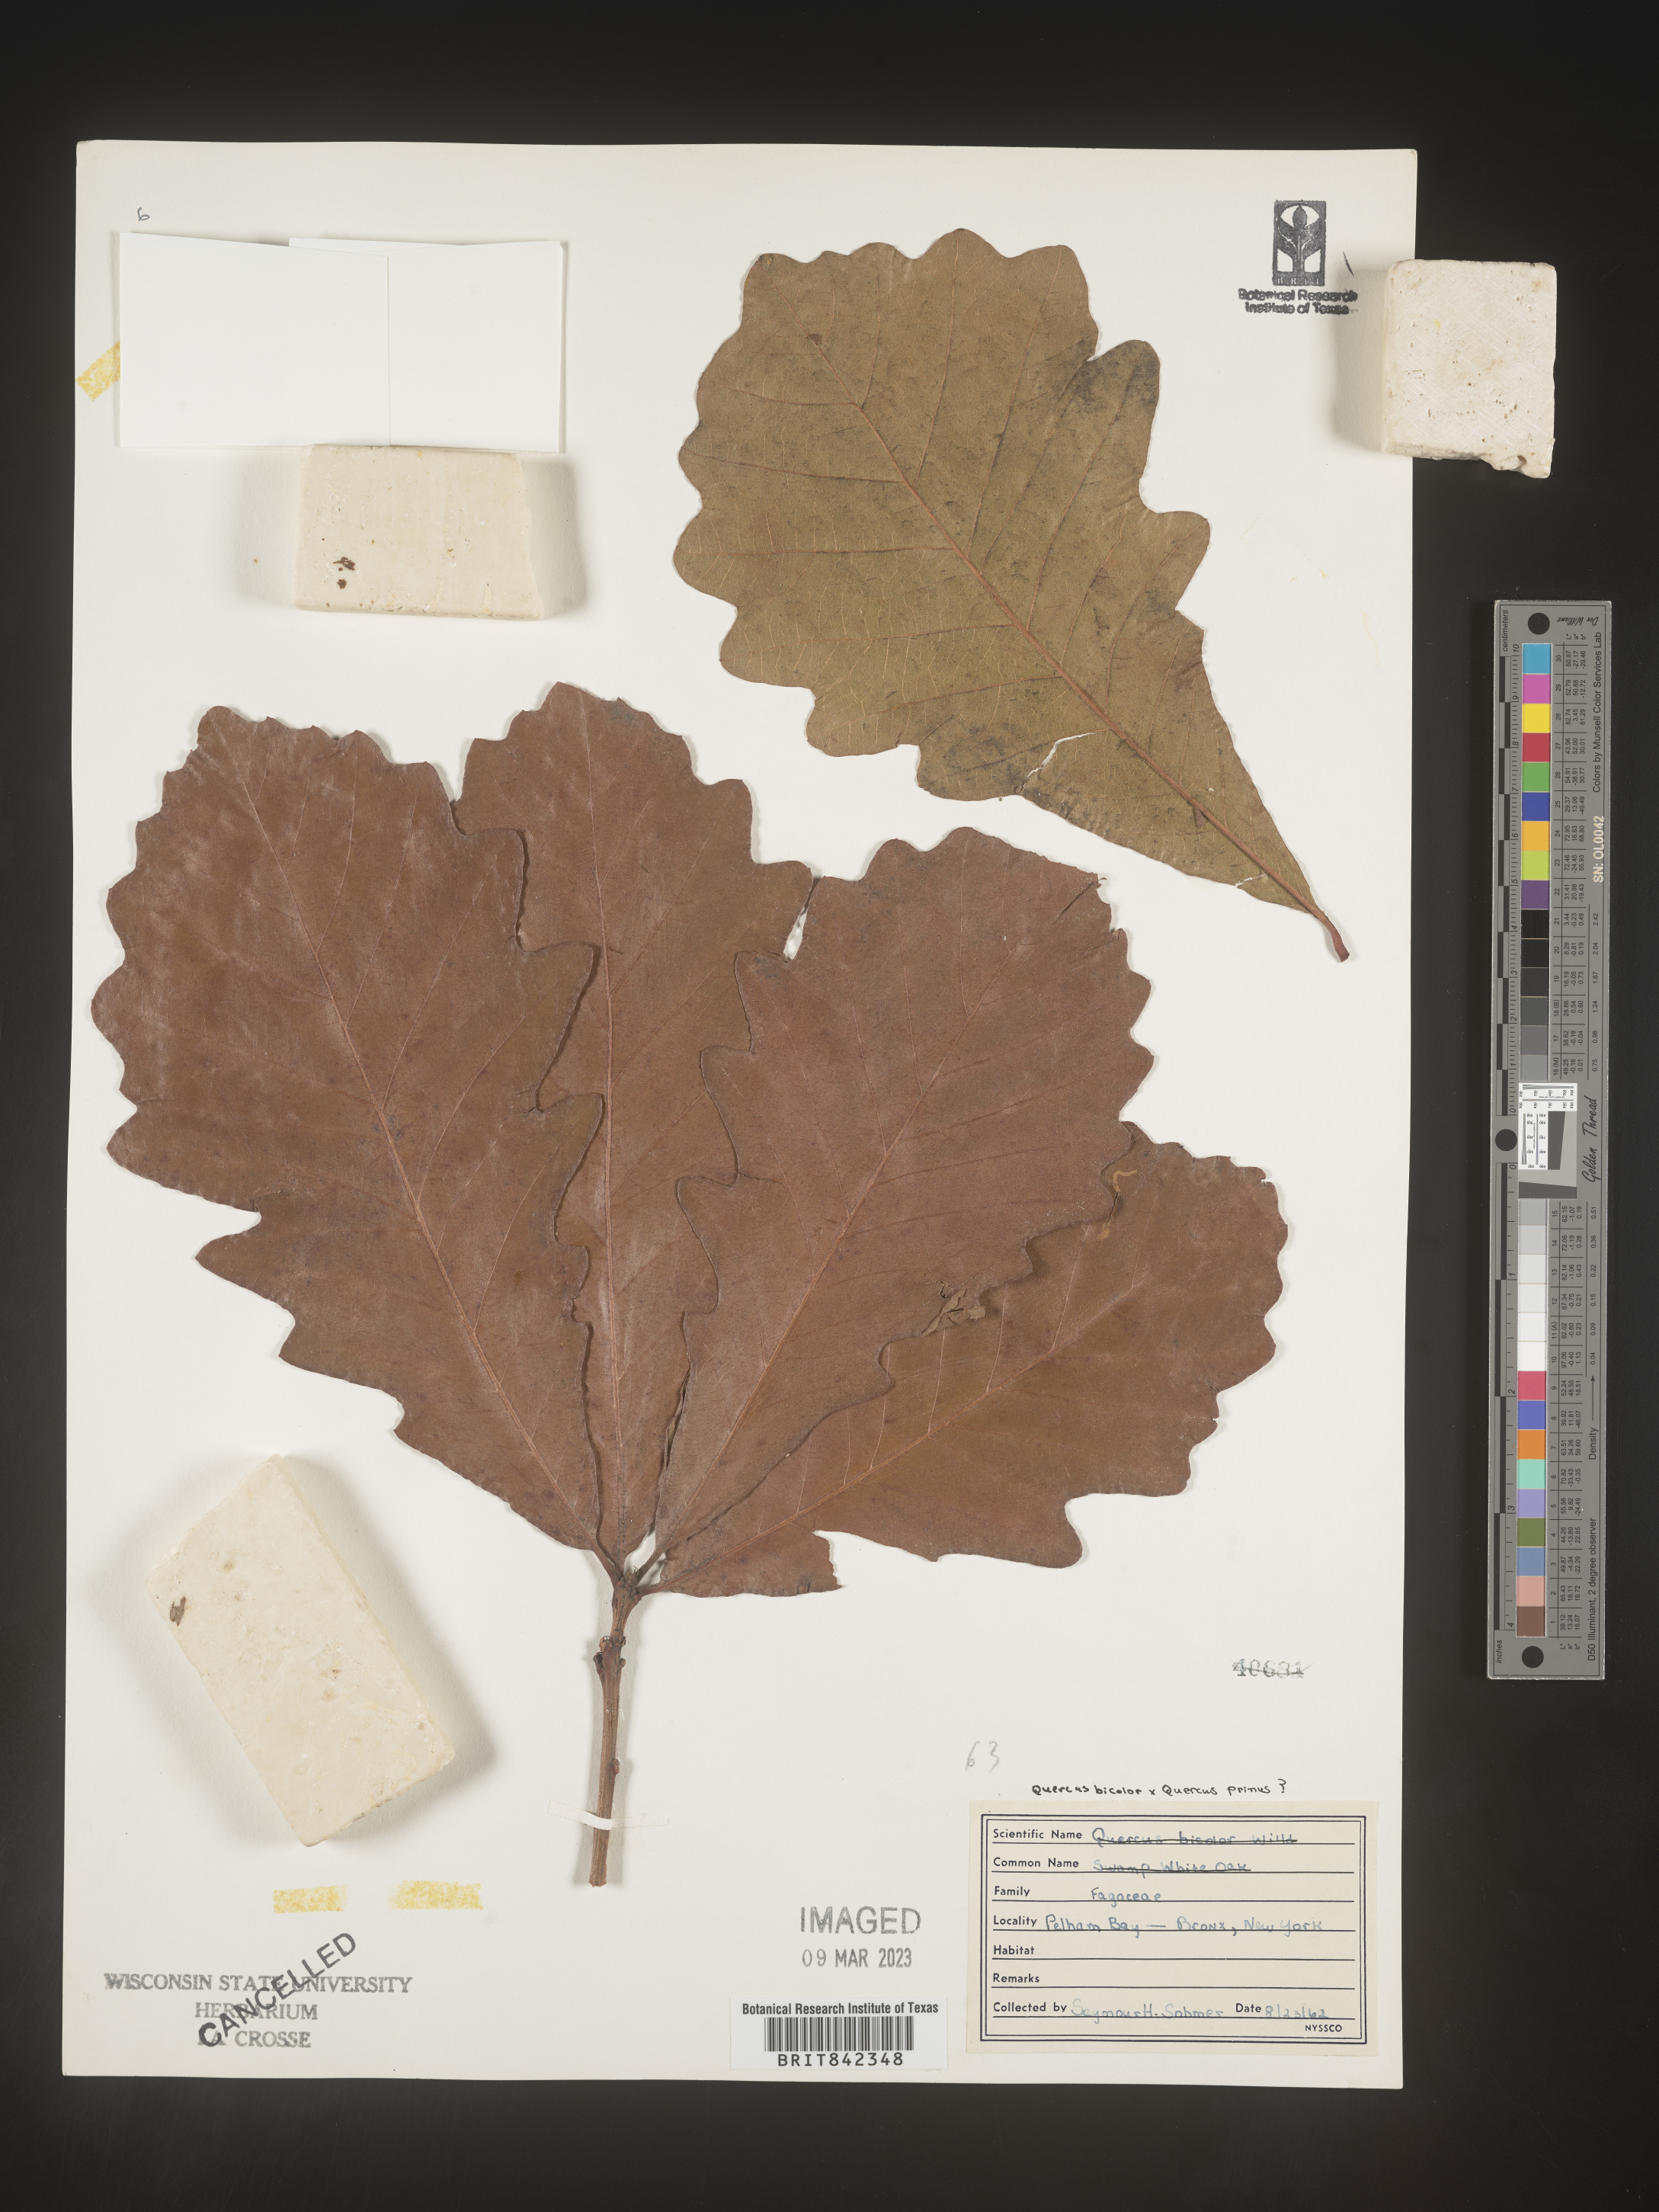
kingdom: Plantae
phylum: Tracheophyta
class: Magnoliopsida
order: Fagales
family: Fagaceae
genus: Quercus
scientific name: Quercus
